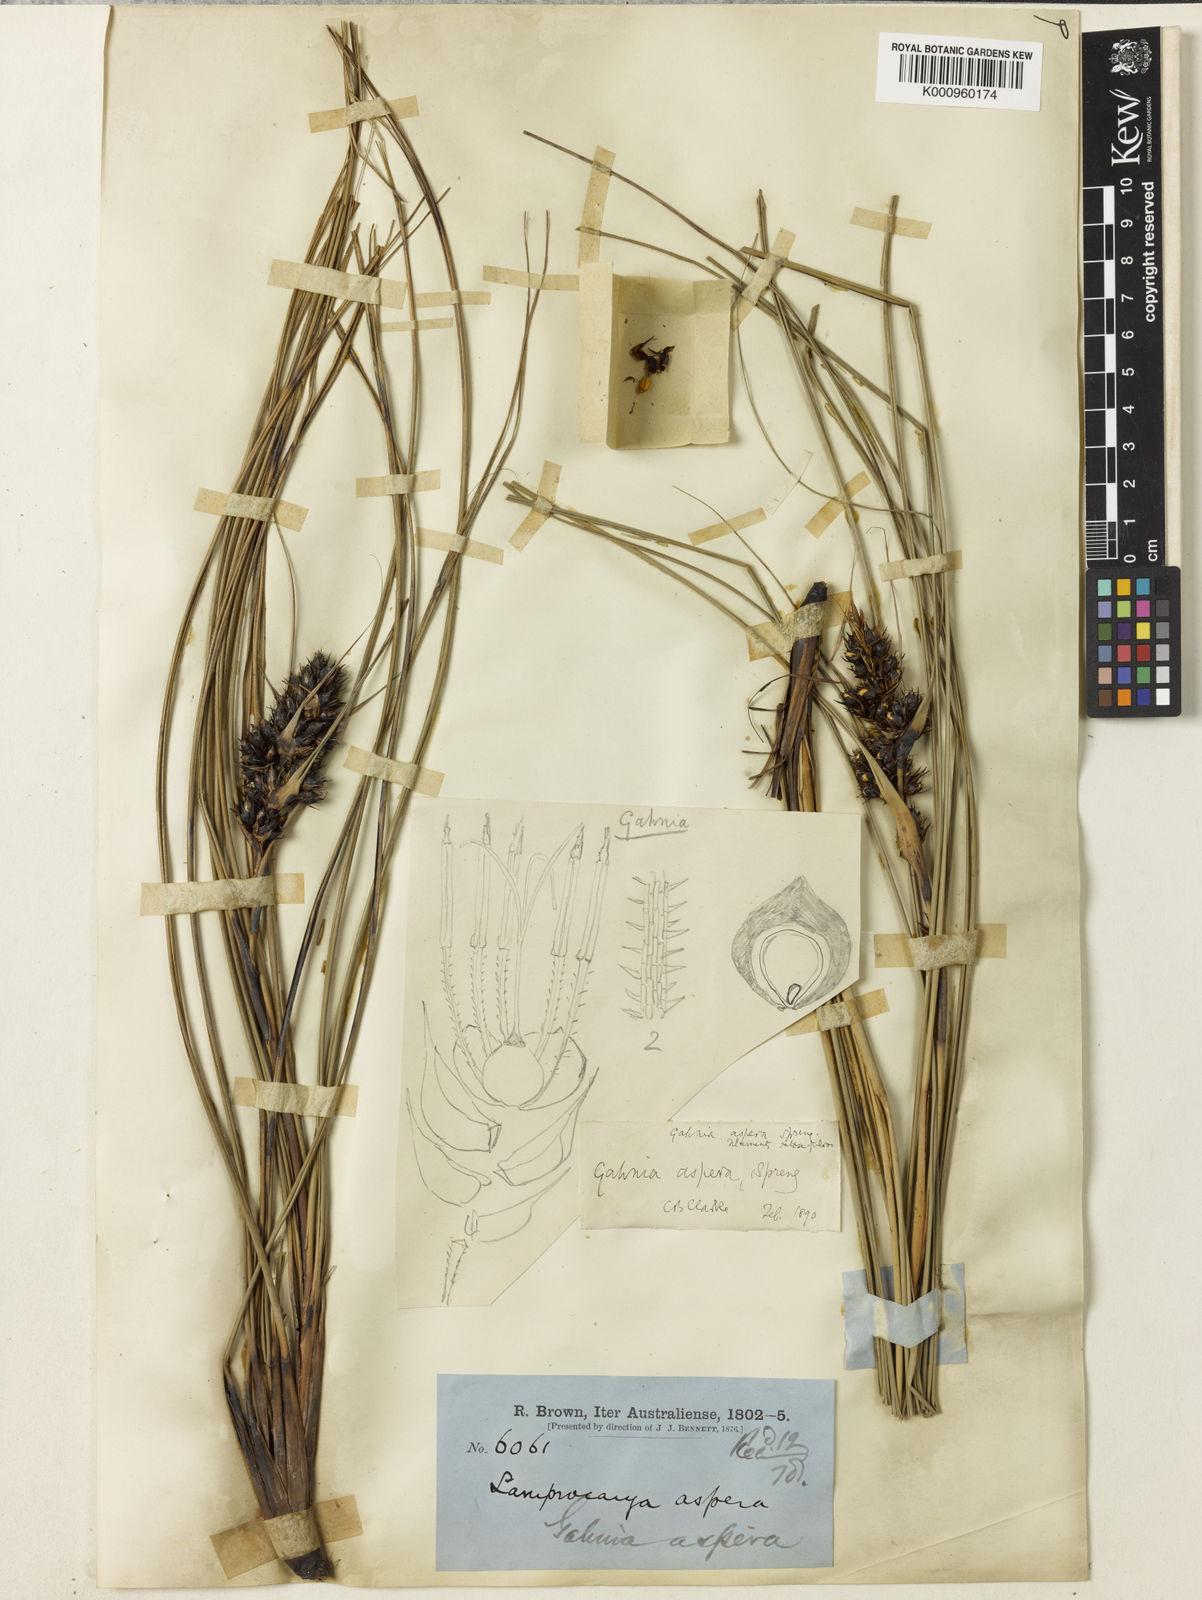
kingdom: Plantae
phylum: Tracheophyta
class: Liliopsida
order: Poales
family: Cyperaceae
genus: Gahnia
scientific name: Gahnia aspera
